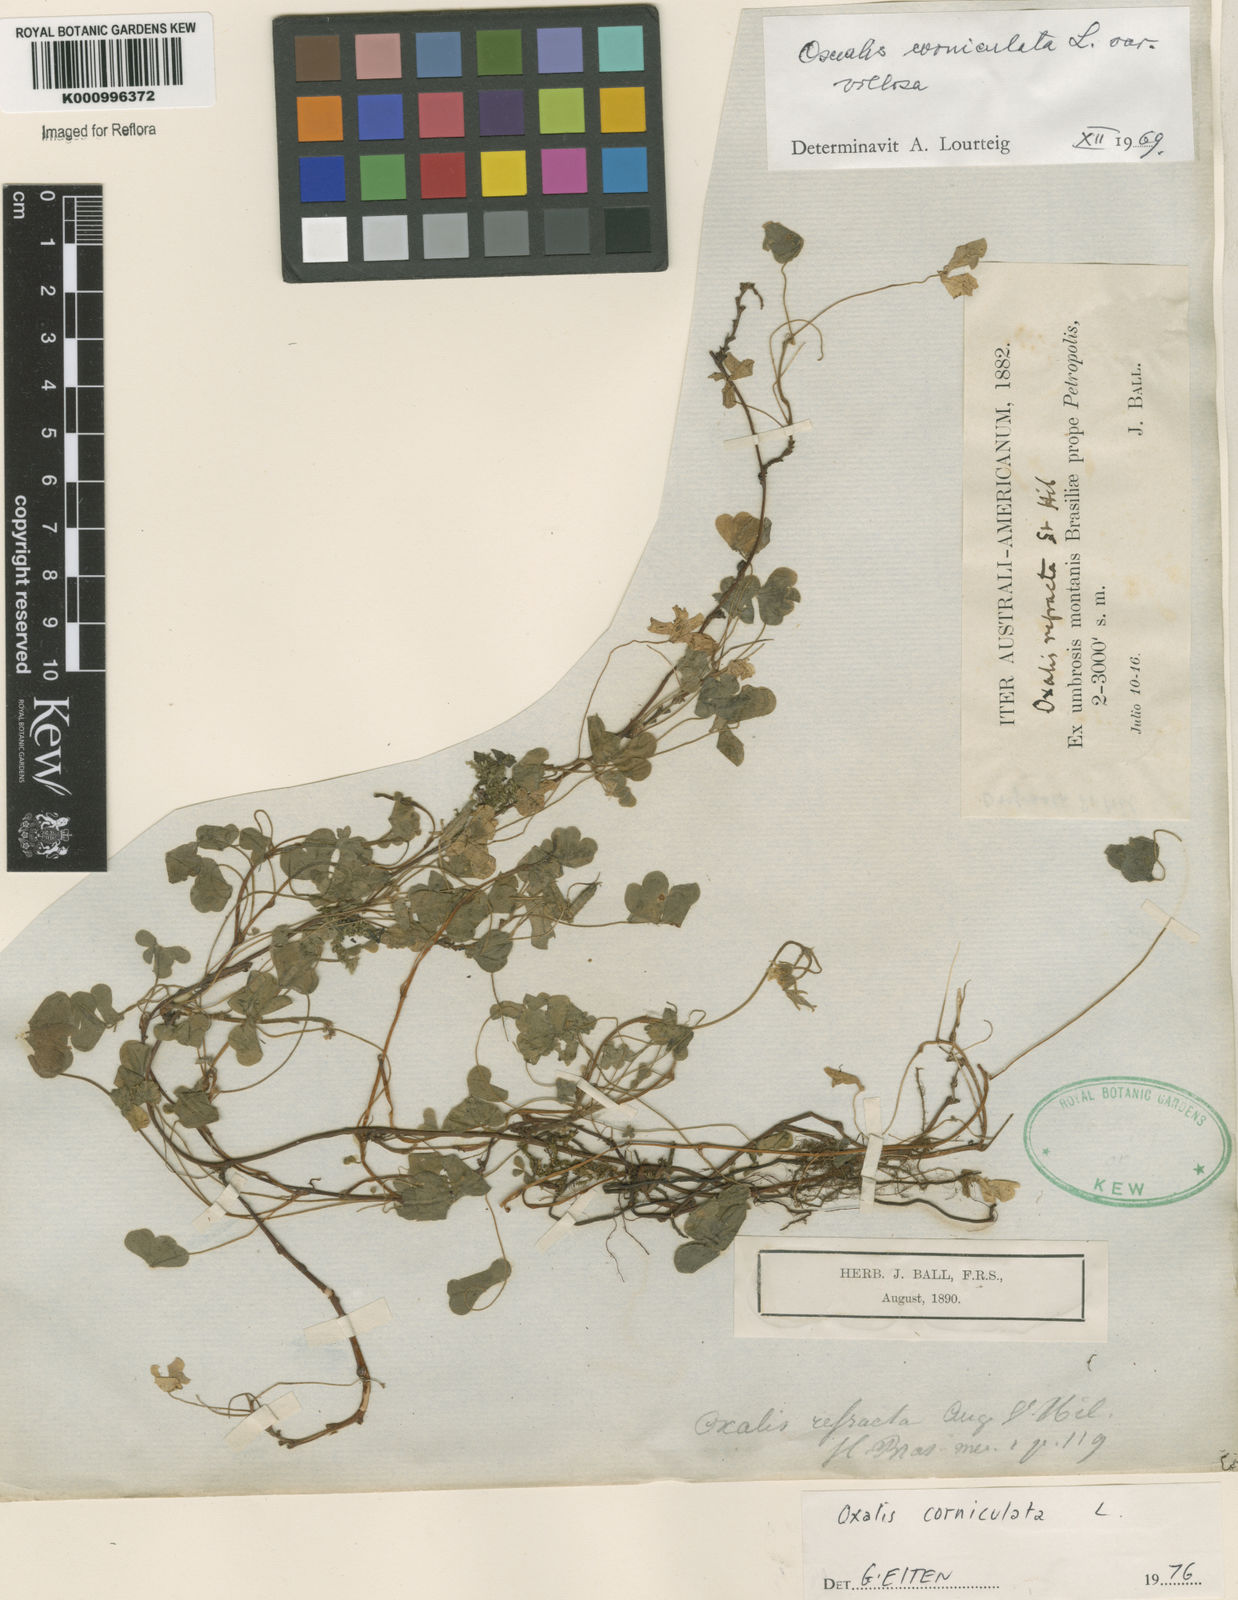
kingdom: Plantae
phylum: Tracheophyta
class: Magnoliopsida
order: Oxalidales
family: Oxalidaceae
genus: Oxalis
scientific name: Oxalis corniculata
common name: Procumbent yellow-sorrel
